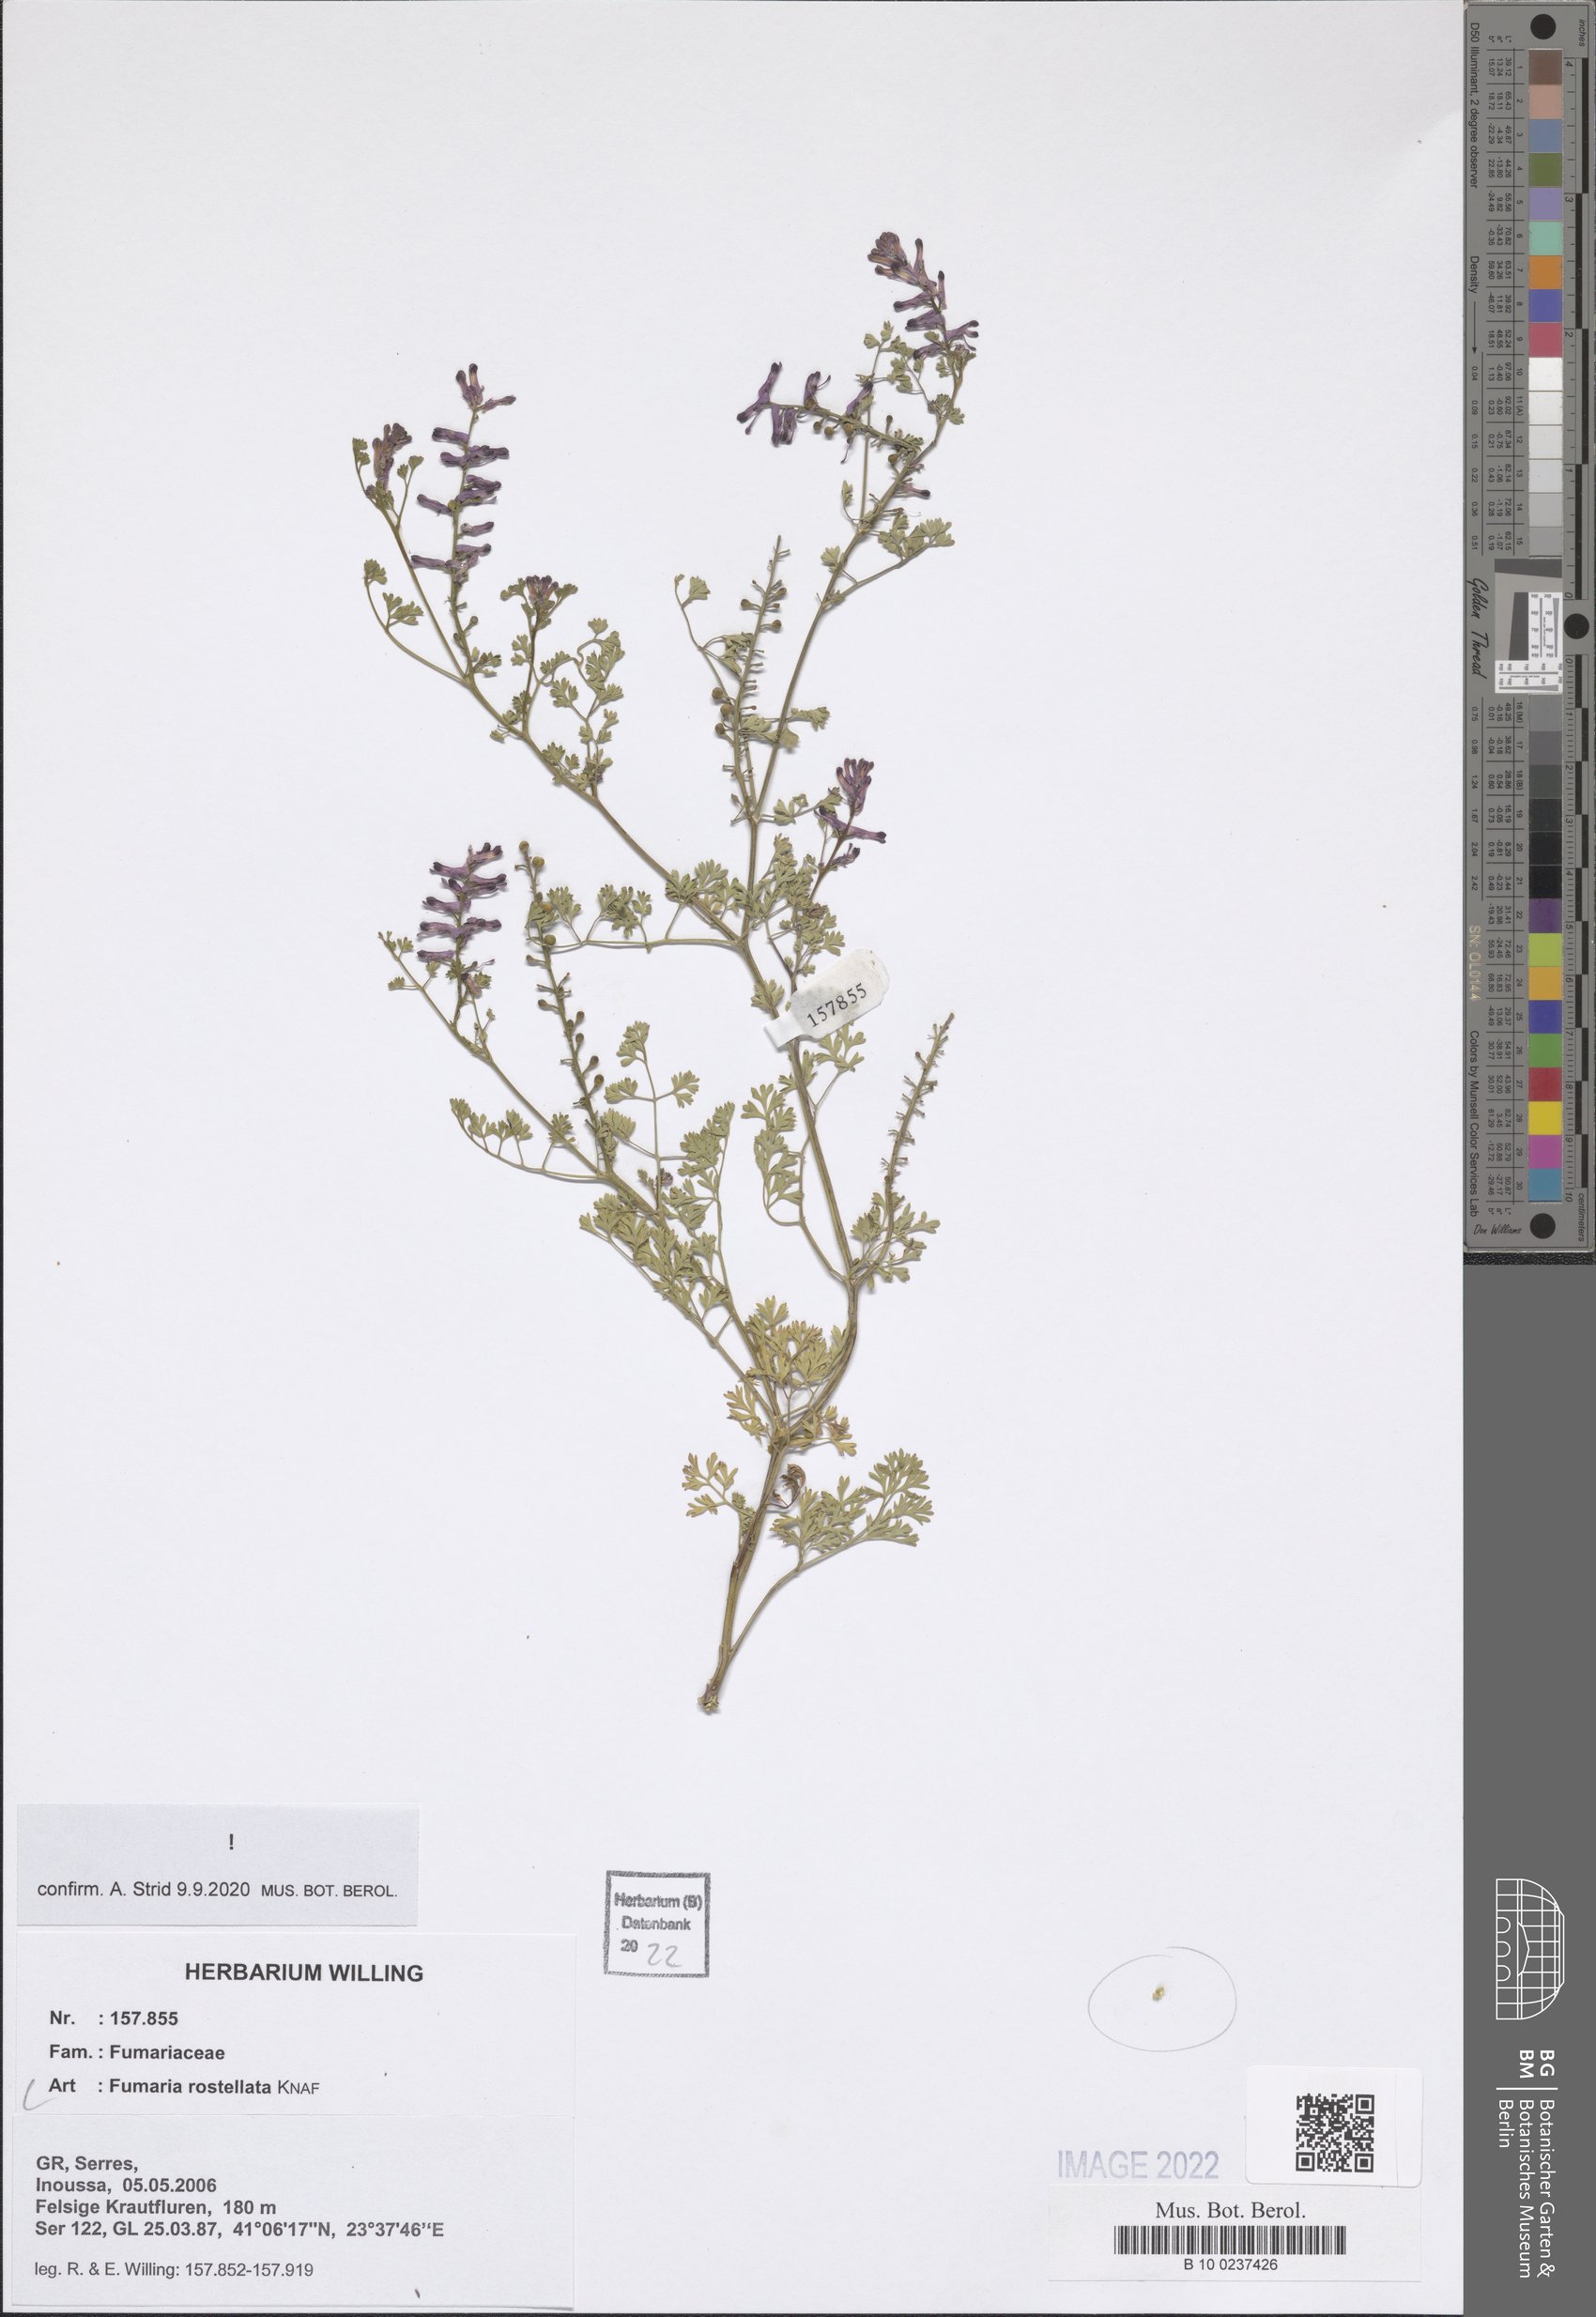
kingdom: Plantae
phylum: Tracheophyta
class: Magnoliopsida
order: Ranunculales
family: Papaveraceae
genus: Fumaria
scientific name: Fumaria rostellata
